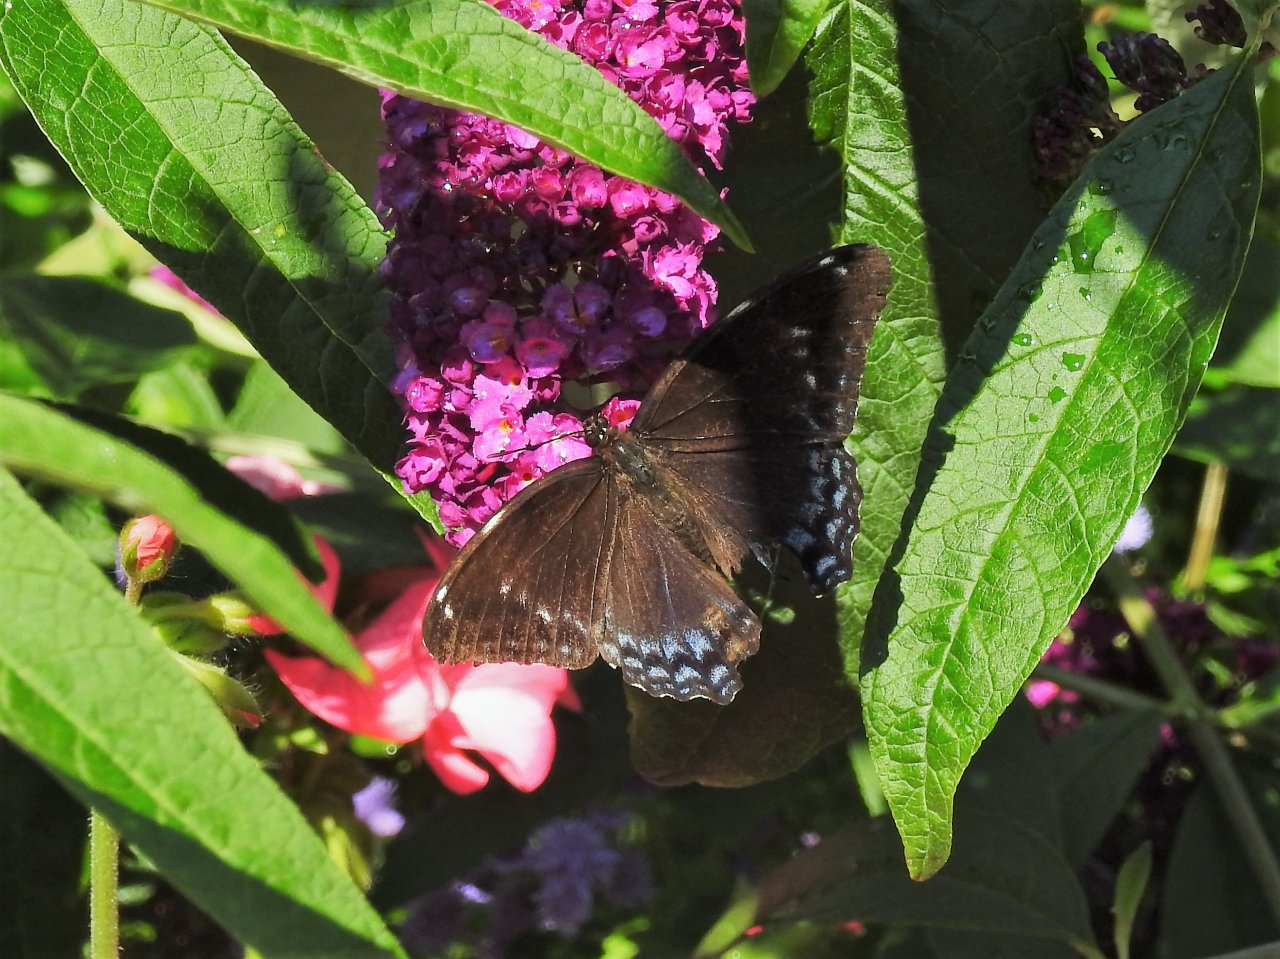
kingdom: Animalia
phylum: Arthropoda
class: Insecta
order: Lepidoptera
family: Nymphalidae
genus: Limenitis
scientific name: Limenitis
